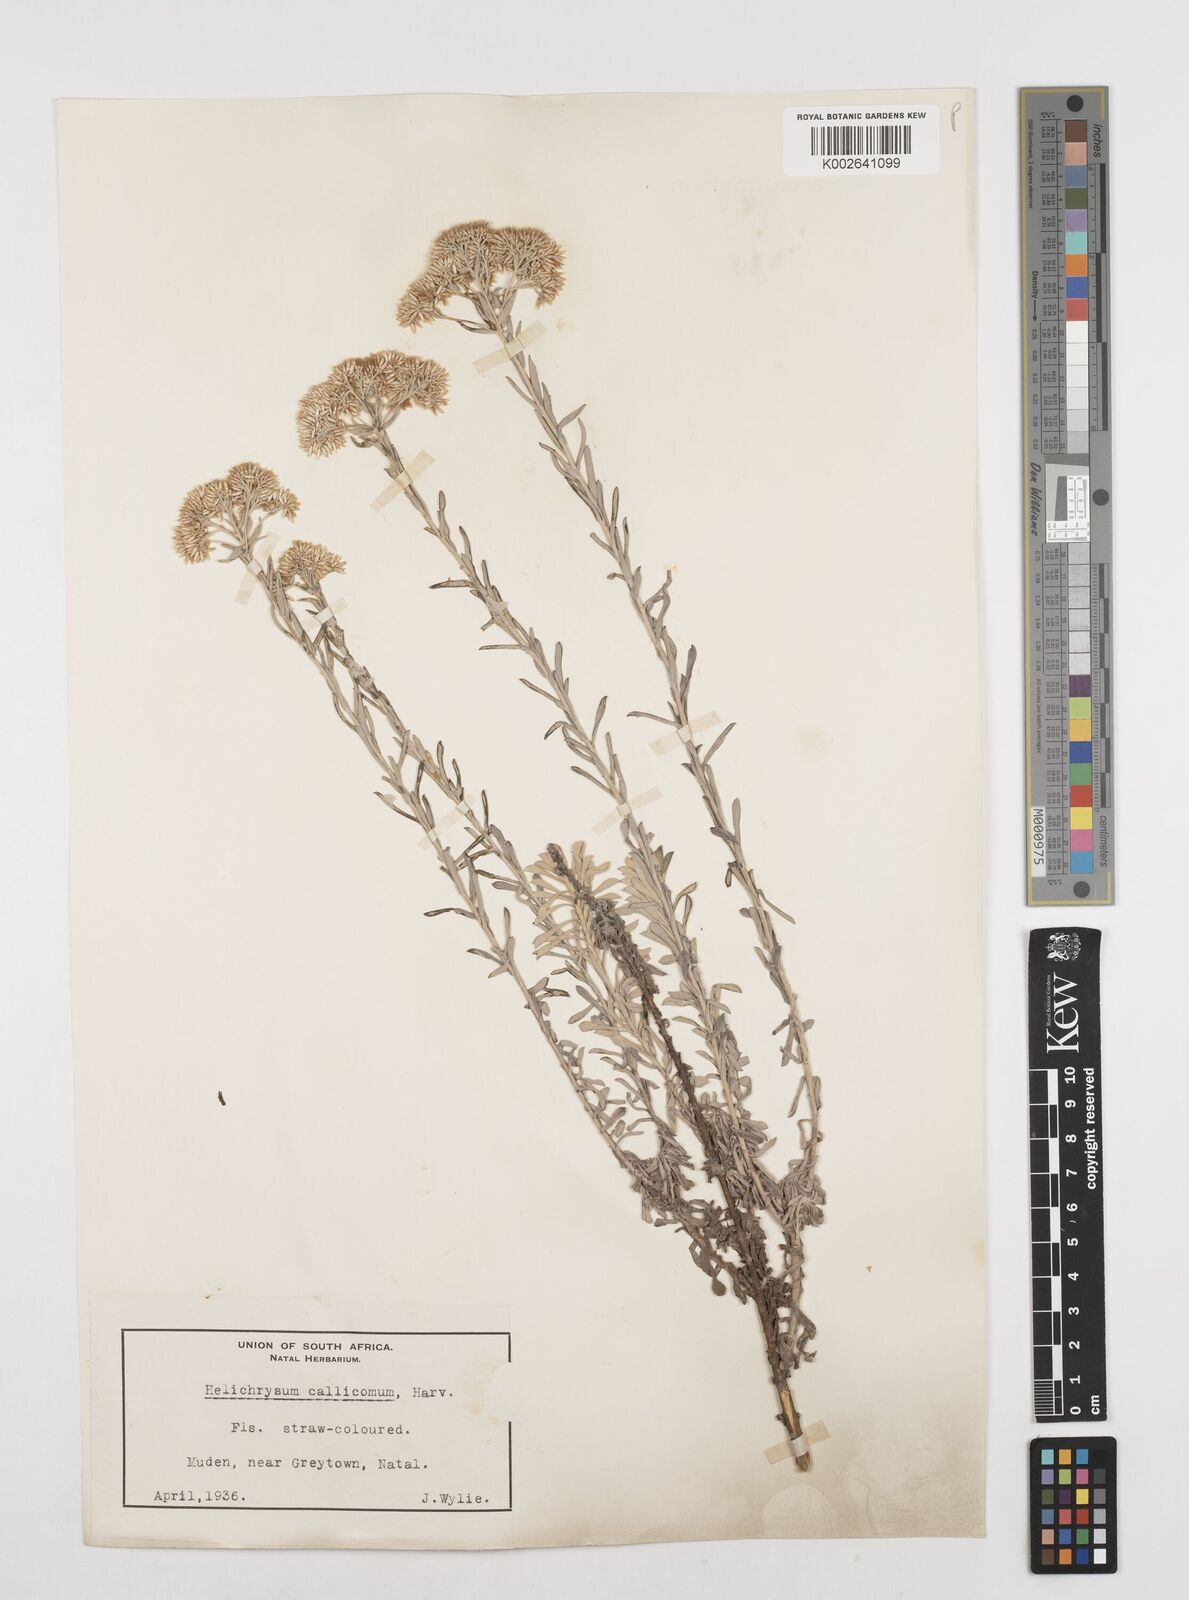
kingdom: Plantae
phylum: Tracheophyta
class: Magnoliopsida
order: Asterales
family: Asteraceae
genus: Helichrysum
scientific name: Helichrysum callicomum
